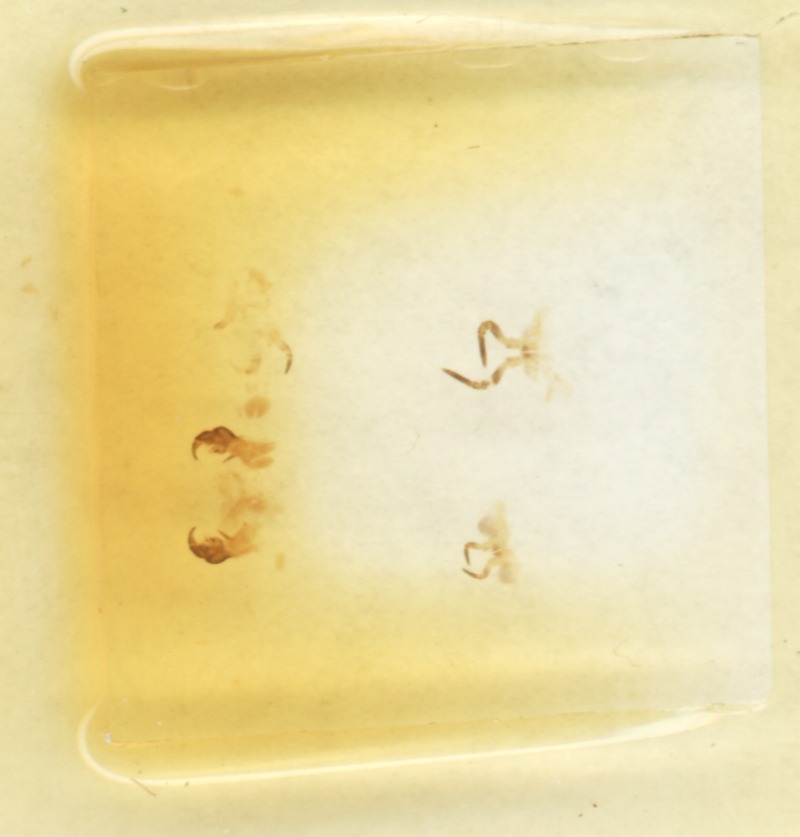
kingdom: Animalia
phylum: Arthropoda
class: Diplopoda
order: Glomerida
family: Glomeridae
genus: Glomeris
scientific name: Glomeris pulchra
